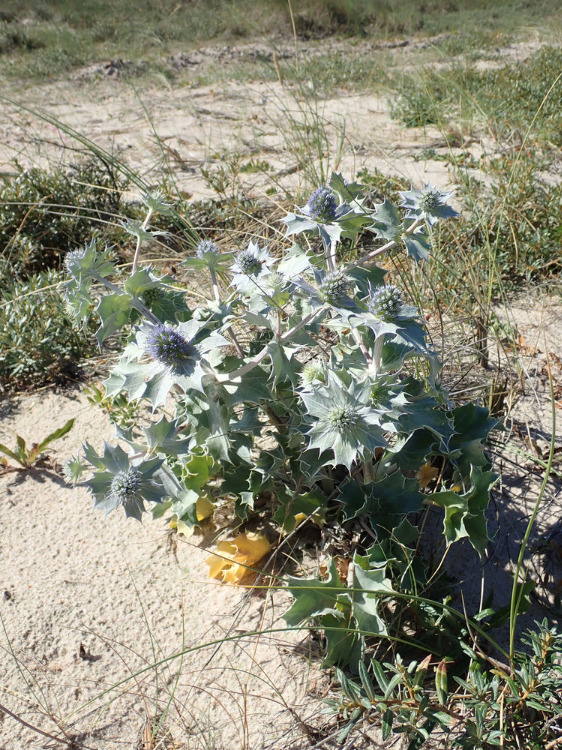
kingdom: Plantae
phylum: Tracheophyta
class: Magnoliopsida
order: Apiales
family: Apiaceae
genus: Eryngium
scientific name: Eryngium maritimum
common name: Strand-mandstro
